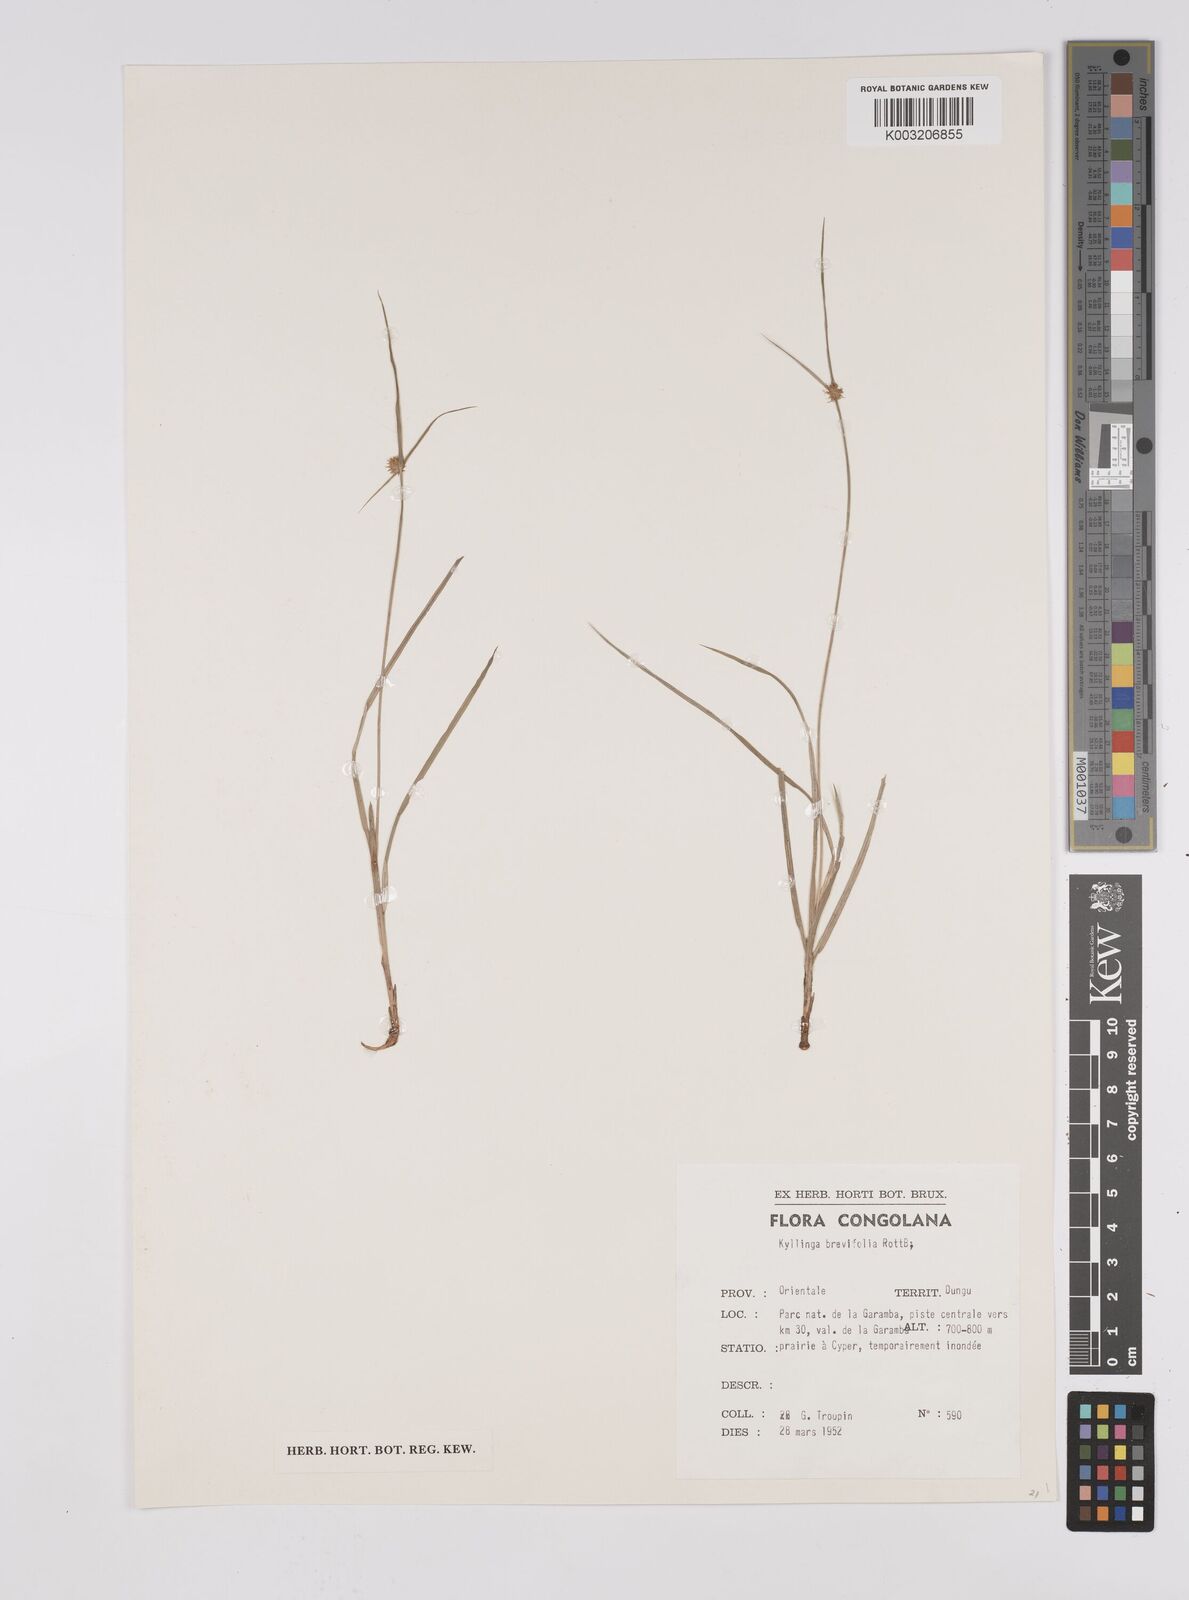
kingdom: Plantae
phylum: Tracheophyta
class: Liliopsida
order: Poales
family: Cyperaceae
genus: Cyperus
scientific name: Cyperus erectus
